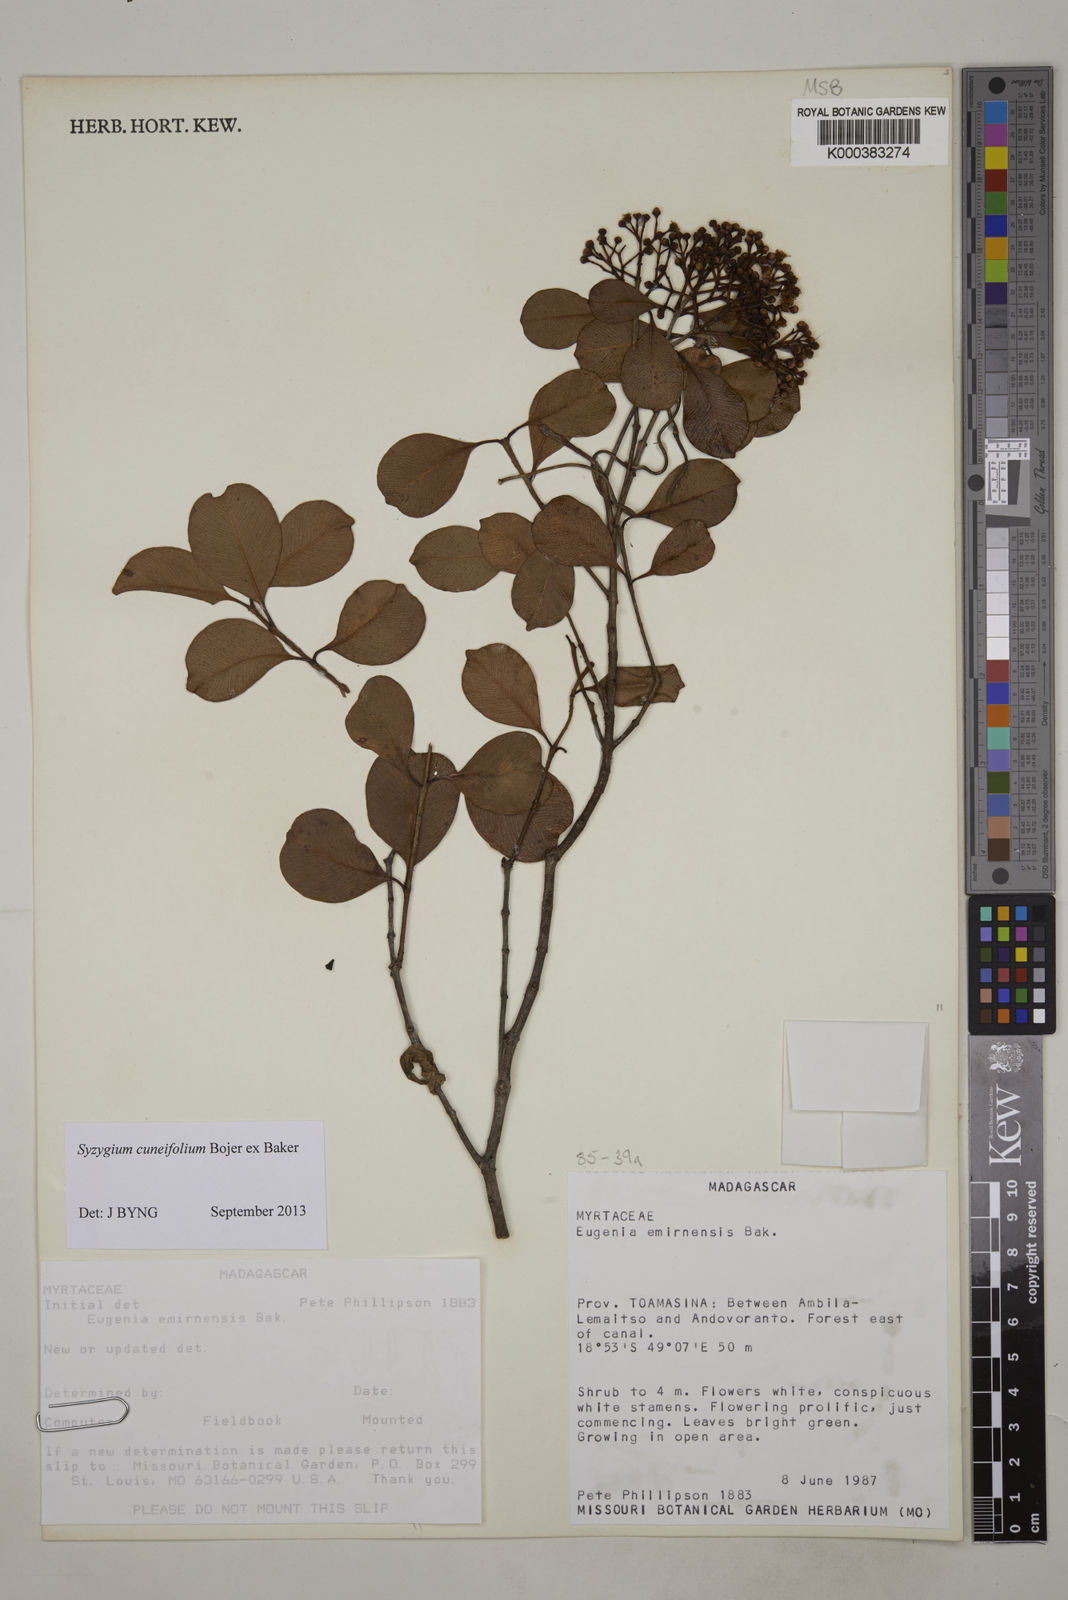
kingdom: Plantae
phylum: Tracheophyta
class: Magnoliopsida
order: Myrtales
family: Myrtaceae
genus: Syzygium
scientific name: Syzygium emirnense
